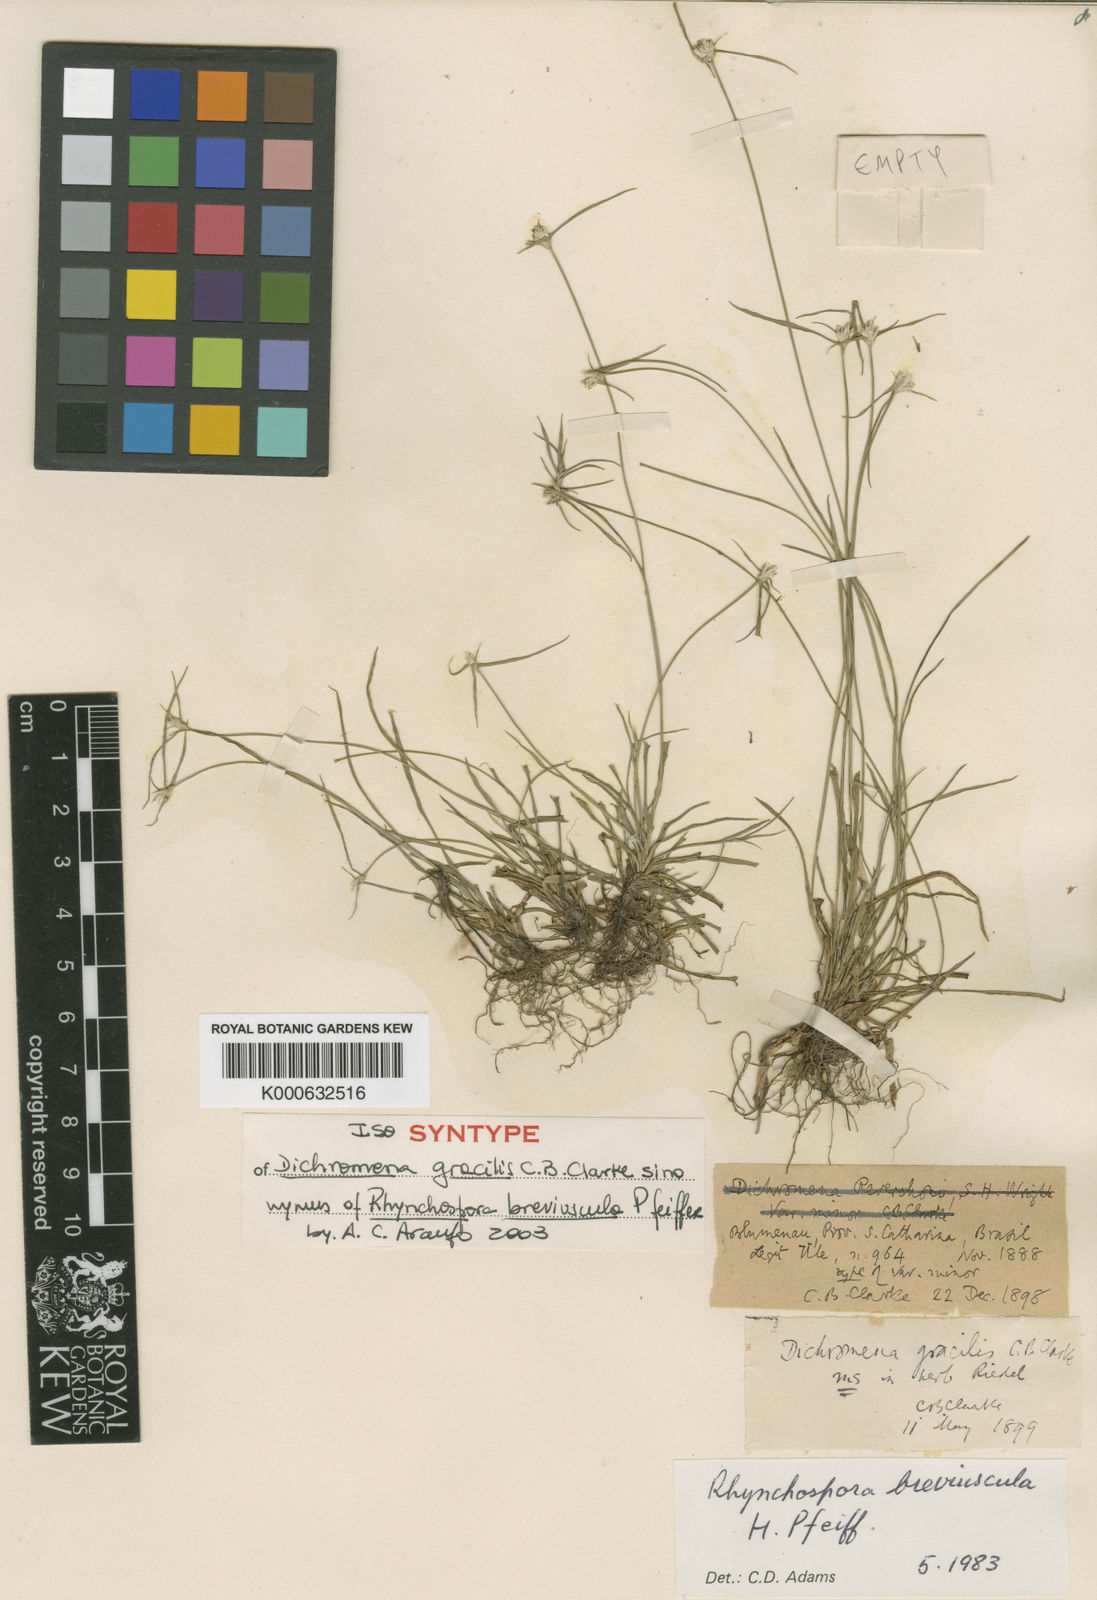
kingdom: Plantae
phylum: Tracheophyta
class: Liliopsida
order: Poales
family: Cyperaceae
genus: Rhynchospora
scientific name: Rhynchospora breviuscula
